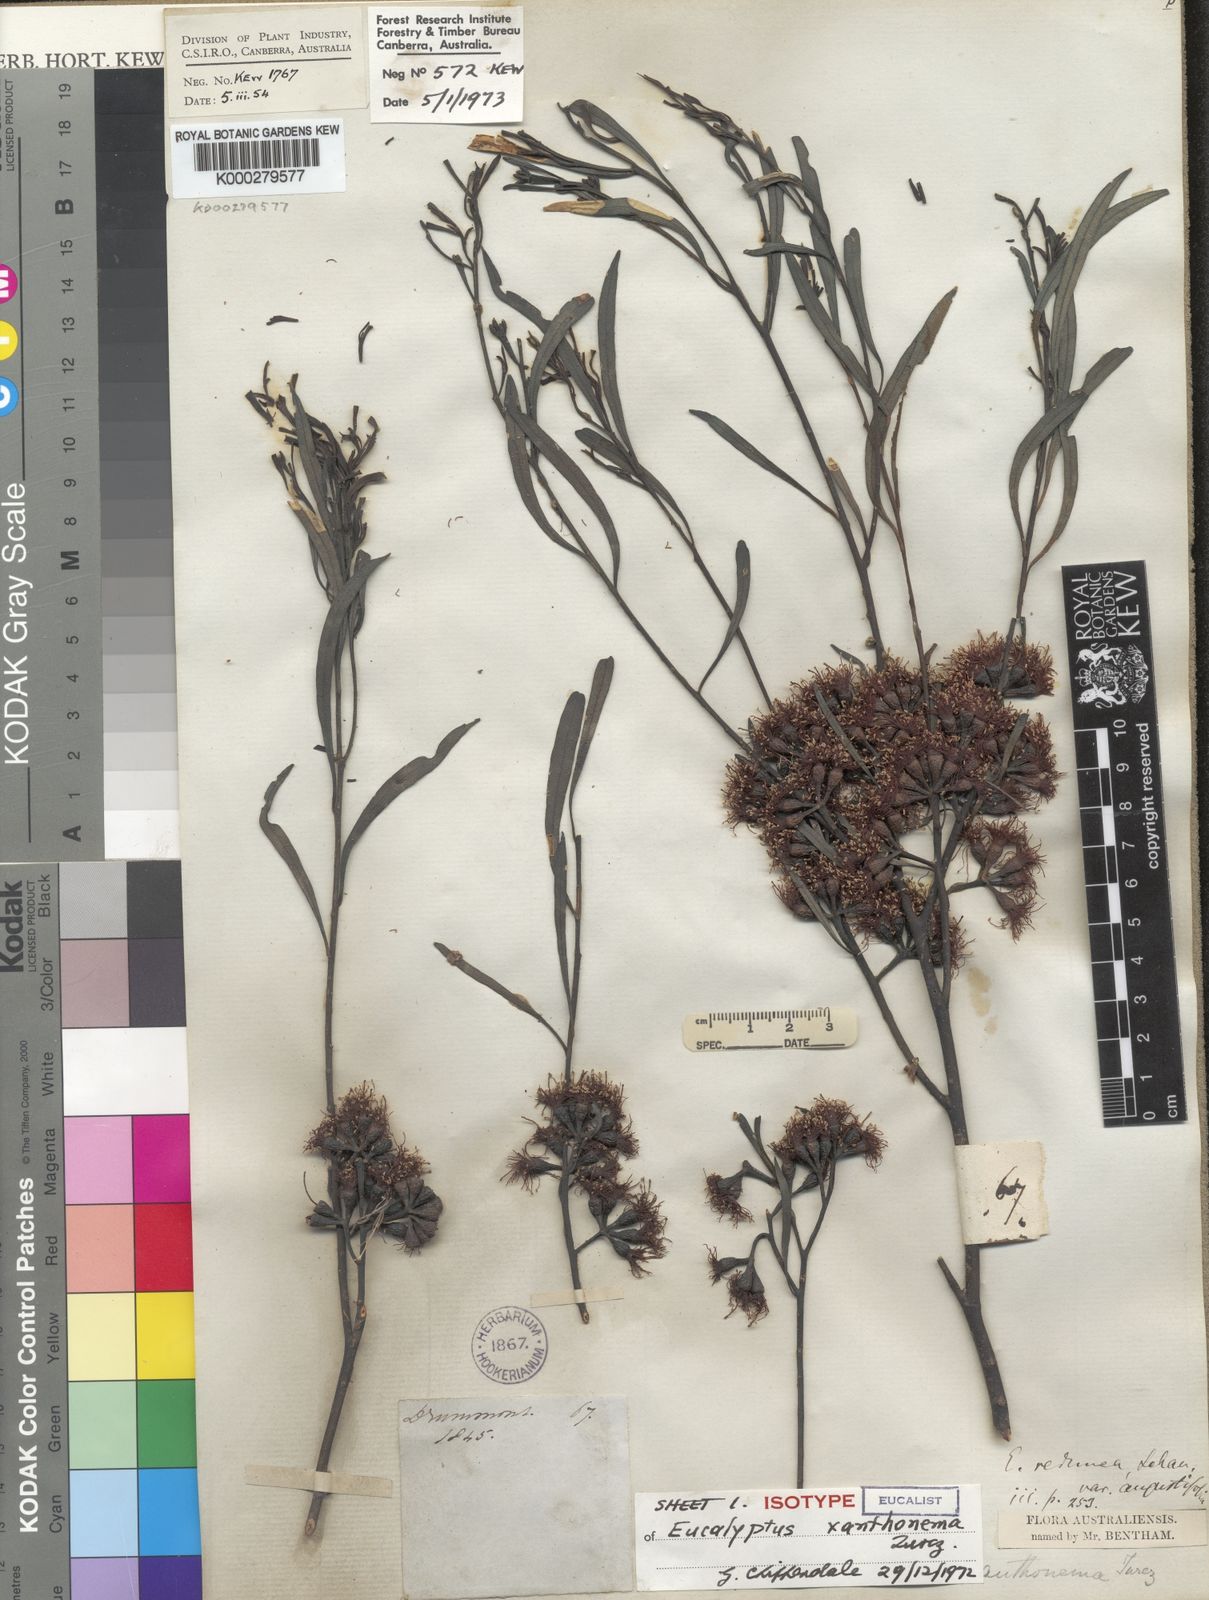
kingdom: Plantae
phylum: Tracheophyta
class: Magnoliopsida
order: Myrtales
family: Myrtaceae
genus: Eucalyptus
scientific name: Eucalyptus xanthonema
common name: Needilup mallee
